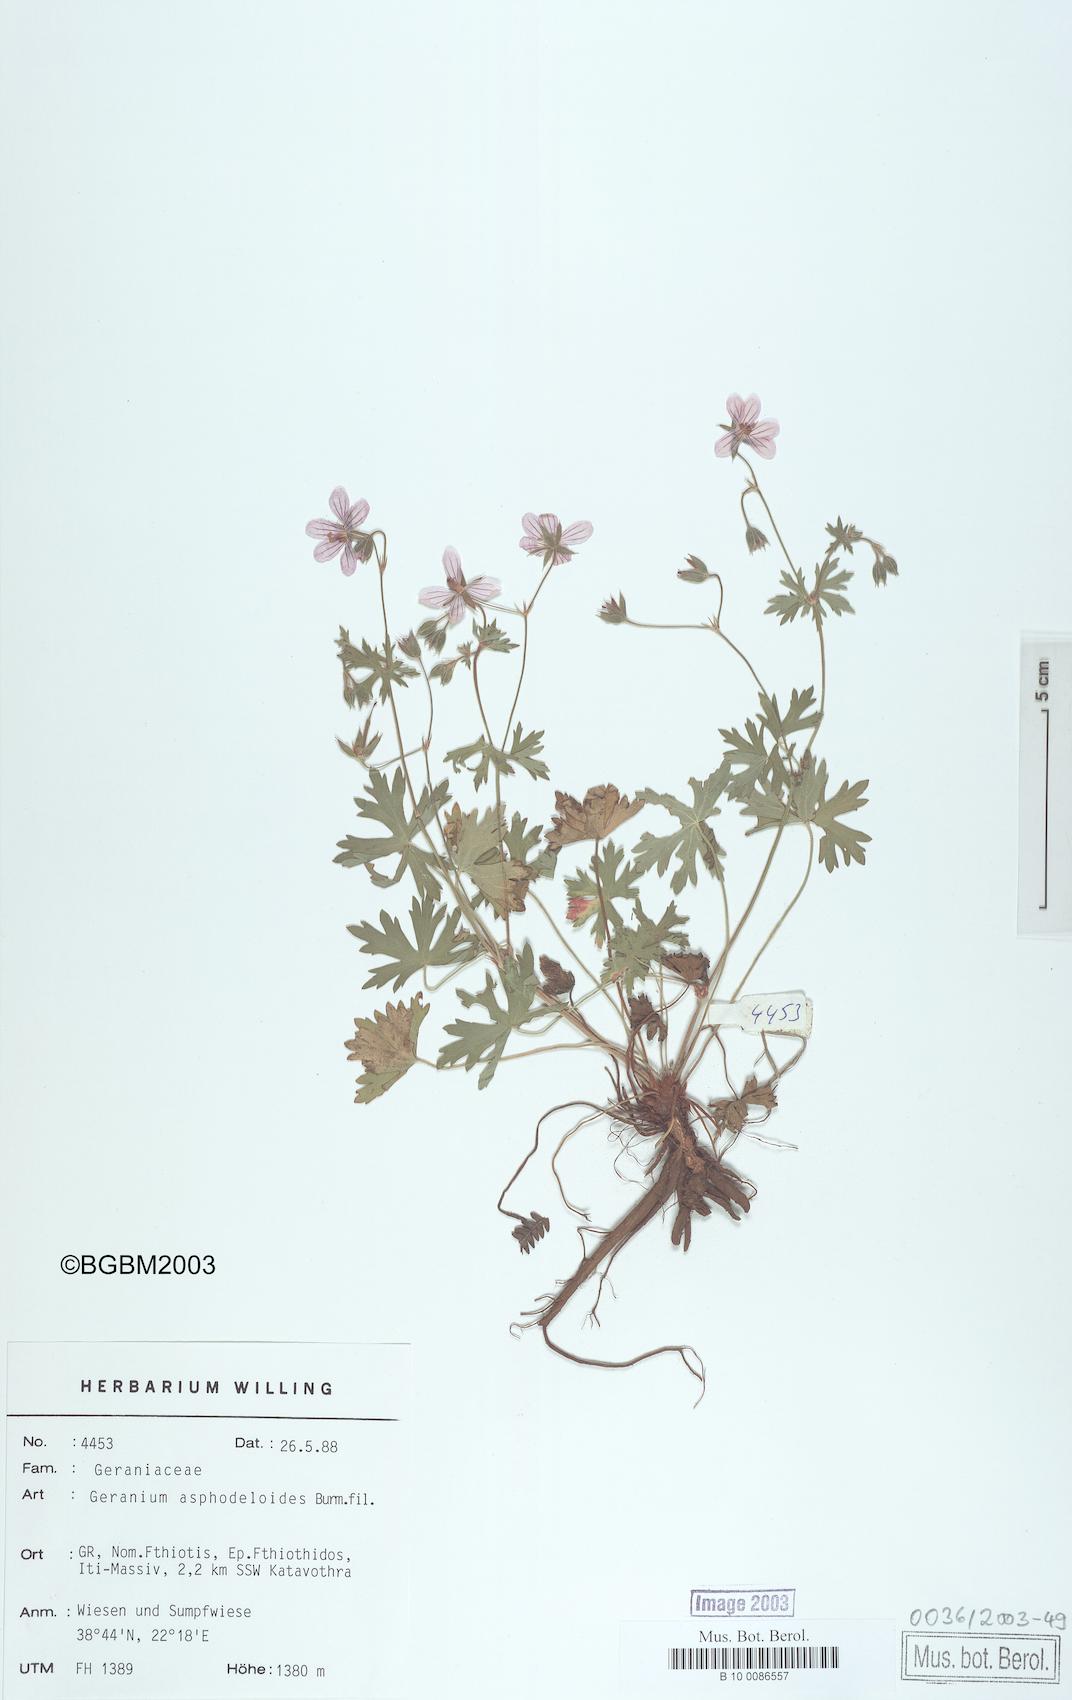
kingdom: Plantae
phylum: Tracheophyta
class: Magnoliopsida
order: Geraniales
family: Geraniaceae
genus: Geranium
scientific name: Geranium asphodeloides
